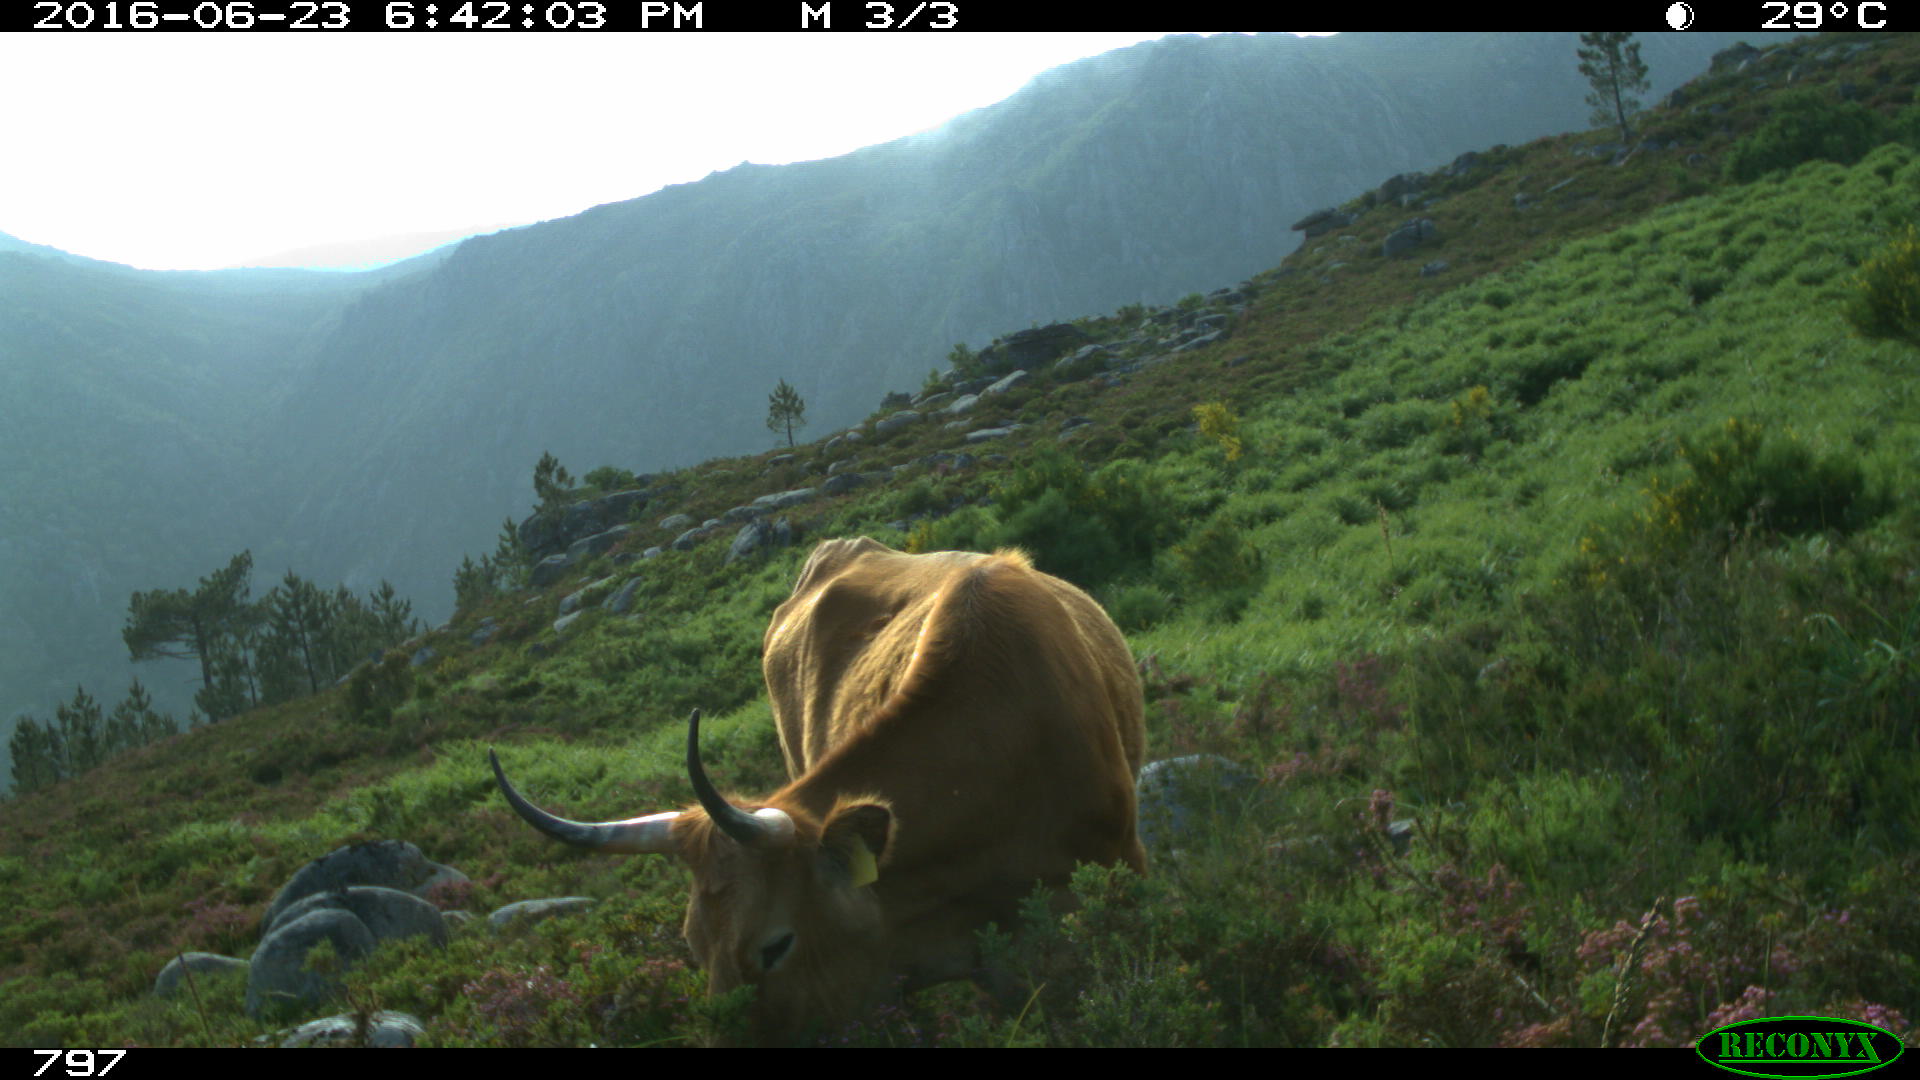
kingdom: Animalia
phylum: Chordata
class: Mammalia
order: Artiodactyla
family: Bovidae
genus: Bos
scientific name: Bos taurus
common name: Domesticated cattle
